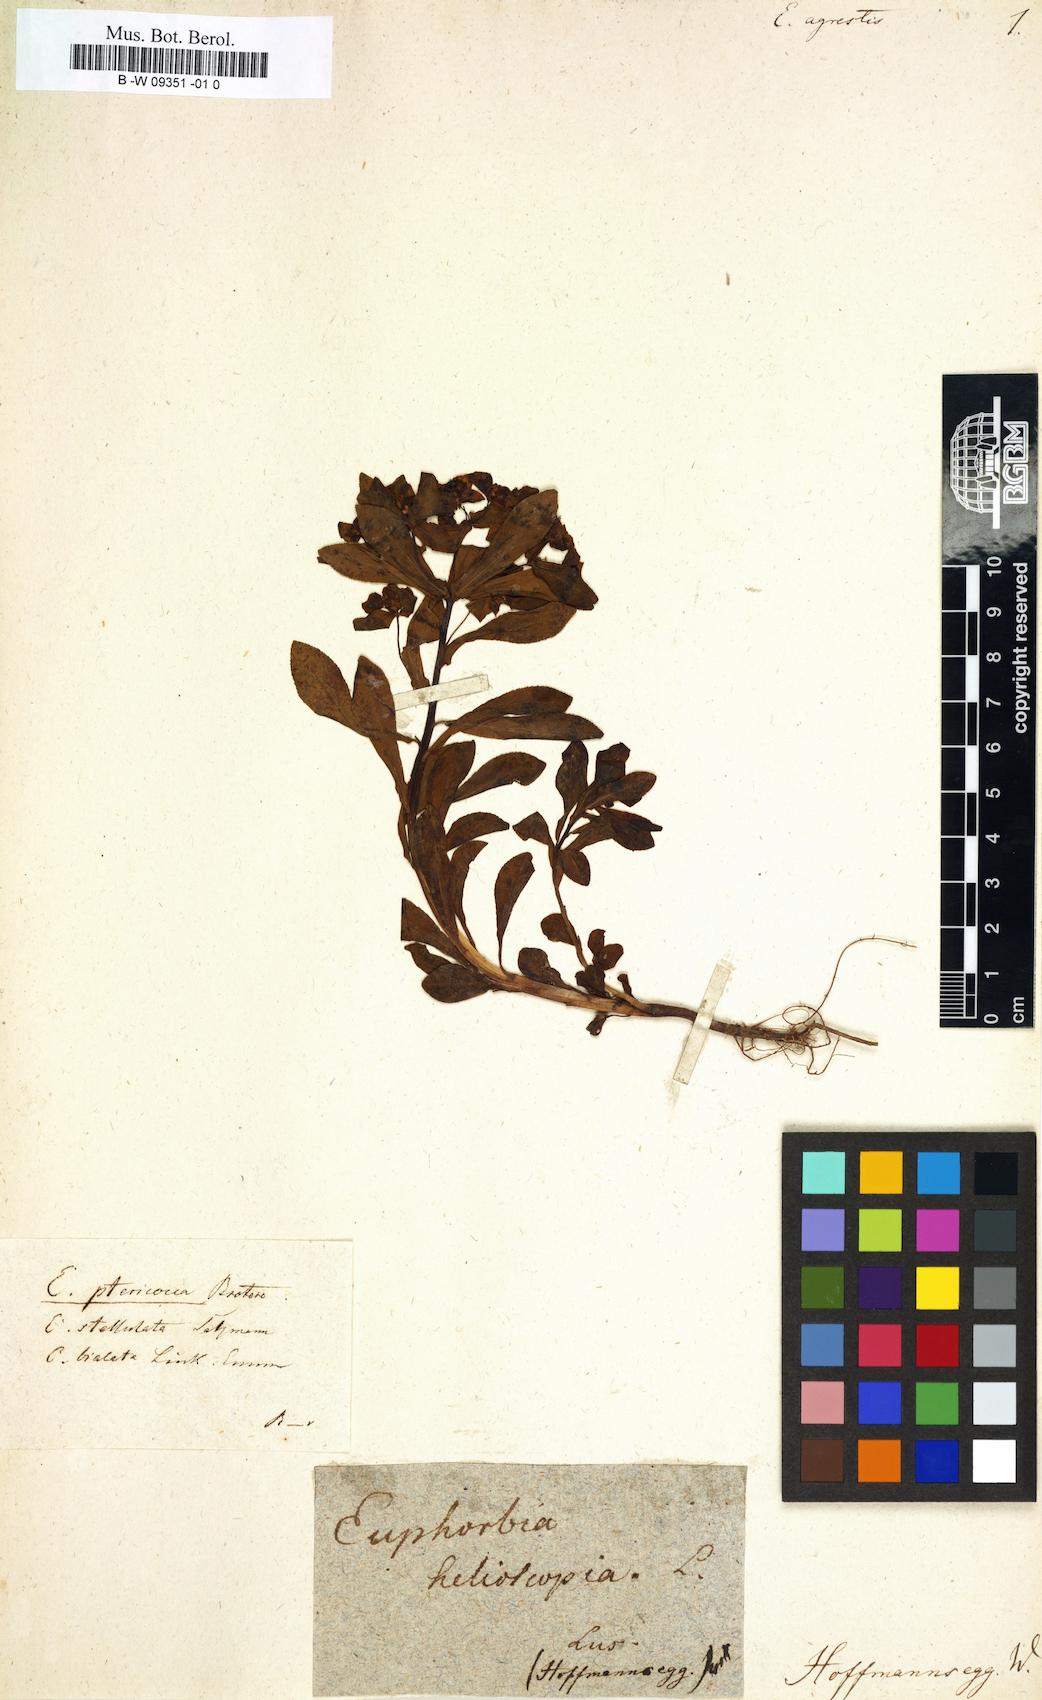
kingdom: Plantae
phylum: Tracheophyta
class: Magnoliopsida
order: Malpighiales
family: Euphorbiaceae
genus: Euphorbia
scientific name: Euphorbia
